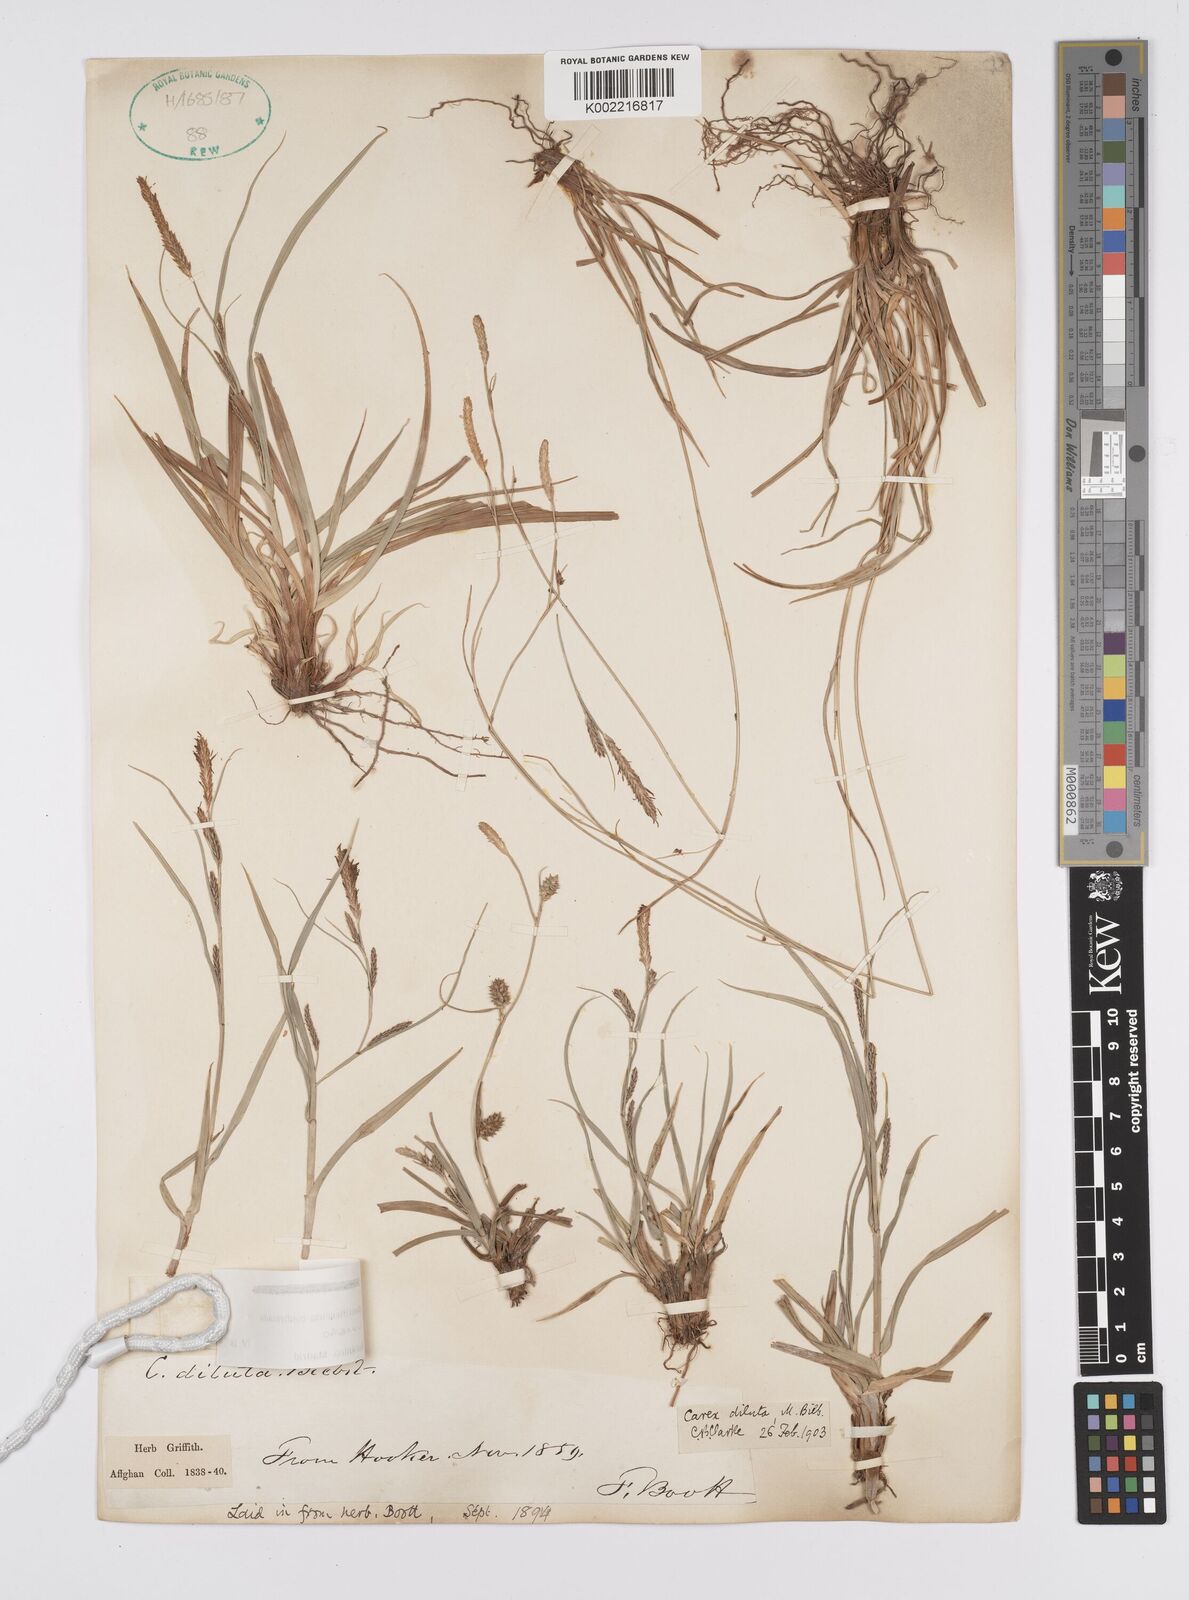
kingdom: Plantae
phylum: Tracheophyta
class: Liliopsida
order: Poales
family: Cyperaceae
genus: Carex
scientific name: Carex diluta
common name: Sedge
